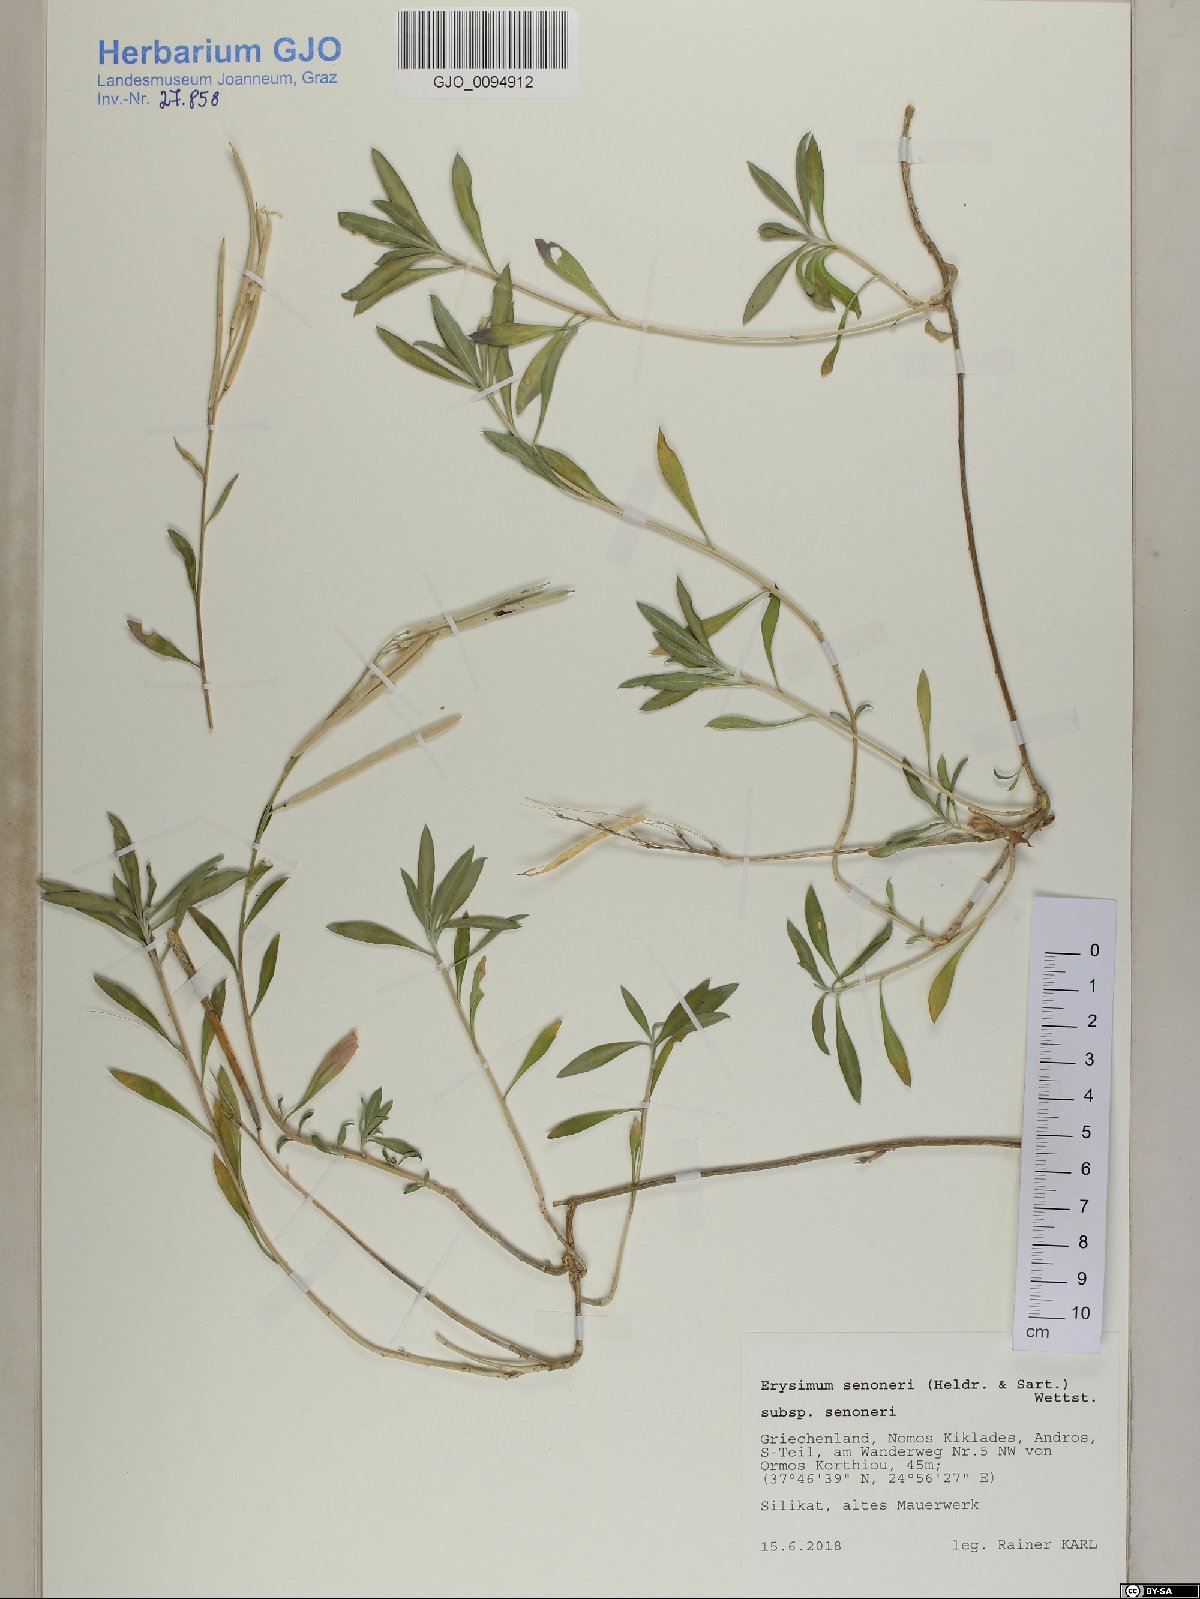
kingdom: Plantae
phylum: Tracheophyta
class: Magnoliopsida
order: Brassicales
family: Brassicaceae
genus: Erysimum
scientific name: Erysimum senoneri
